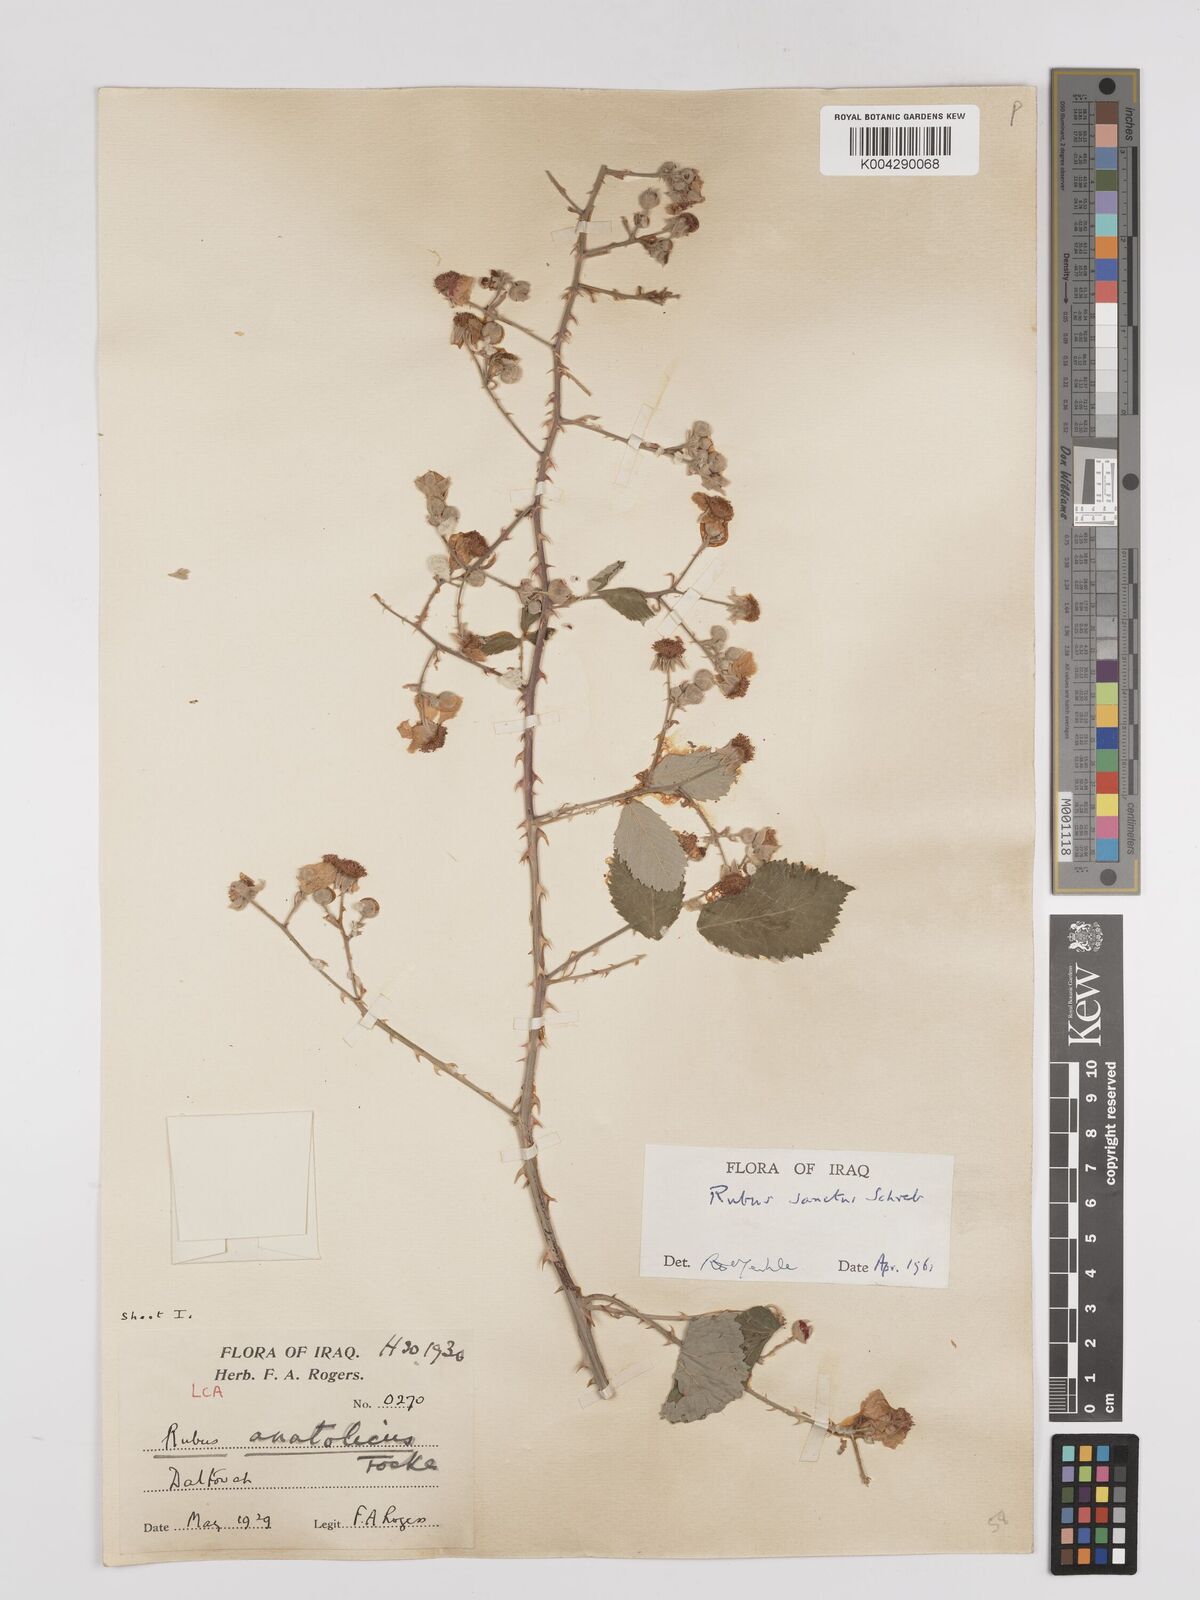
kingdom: Plantae
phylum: Tracheophyta
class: Magnoliopsida
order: Rosales
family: Rosaceae
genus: Rubus
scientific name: Rubus sanctus
